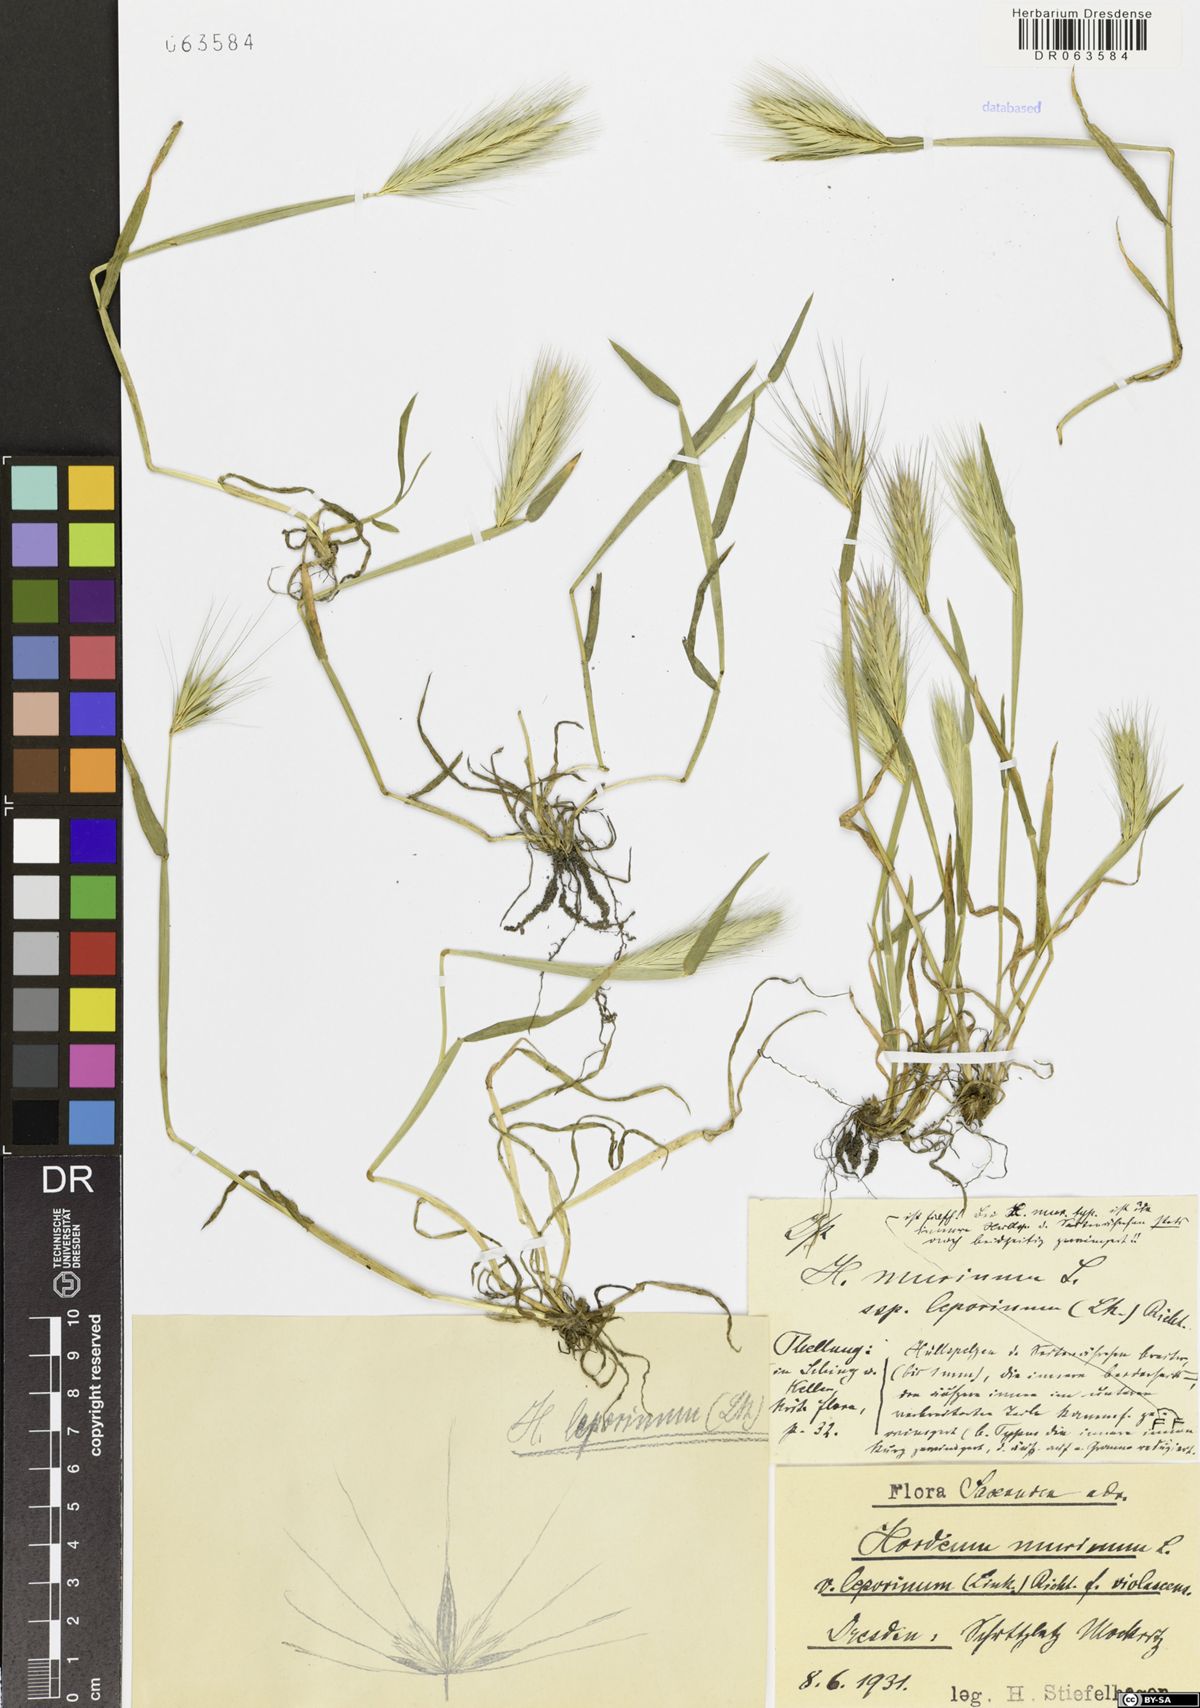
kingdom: Plantae
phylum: Tracheophyta
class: Liliopsida
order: Poales
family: Poaceae
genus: Hordeum
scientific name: Hordeum murinum
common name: Wall barley
